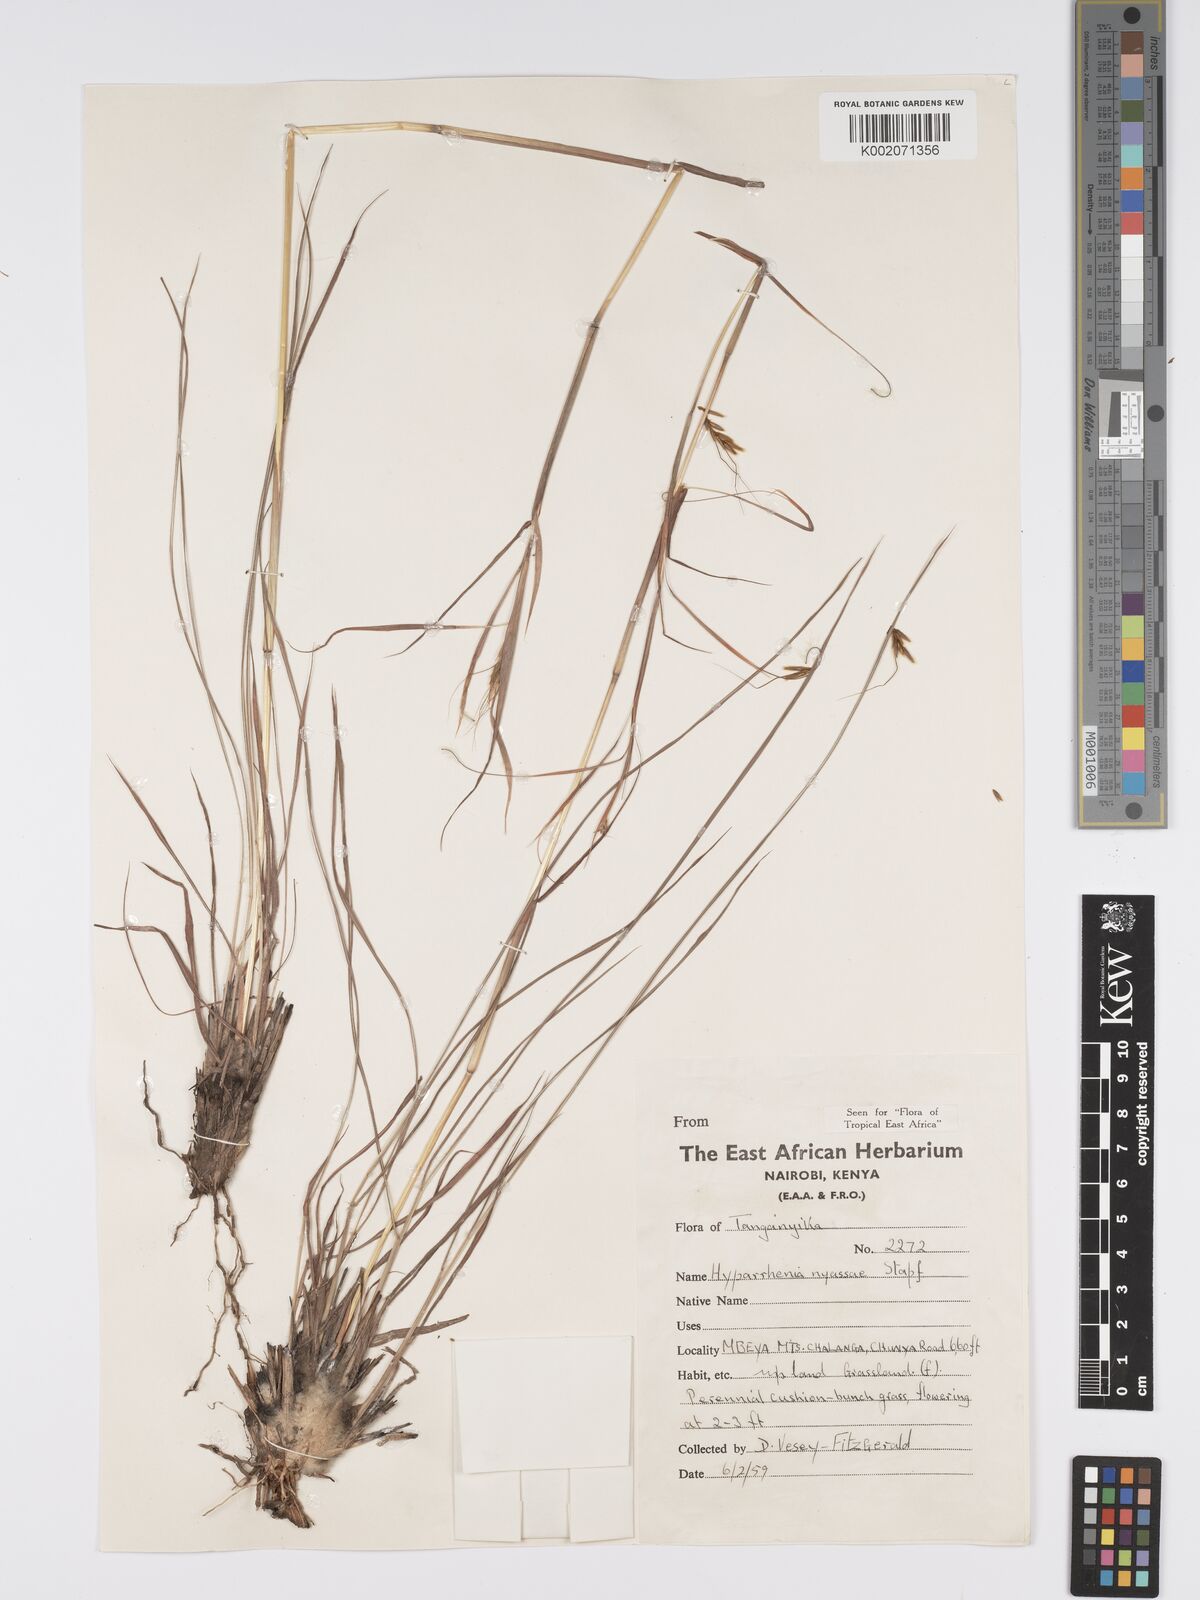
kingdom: Plantae
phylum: Tracheophyta
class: Liliopsida
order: Poales
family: Poaceae
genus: Hyparrhenia
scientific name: Hyparrhenia nyassae
